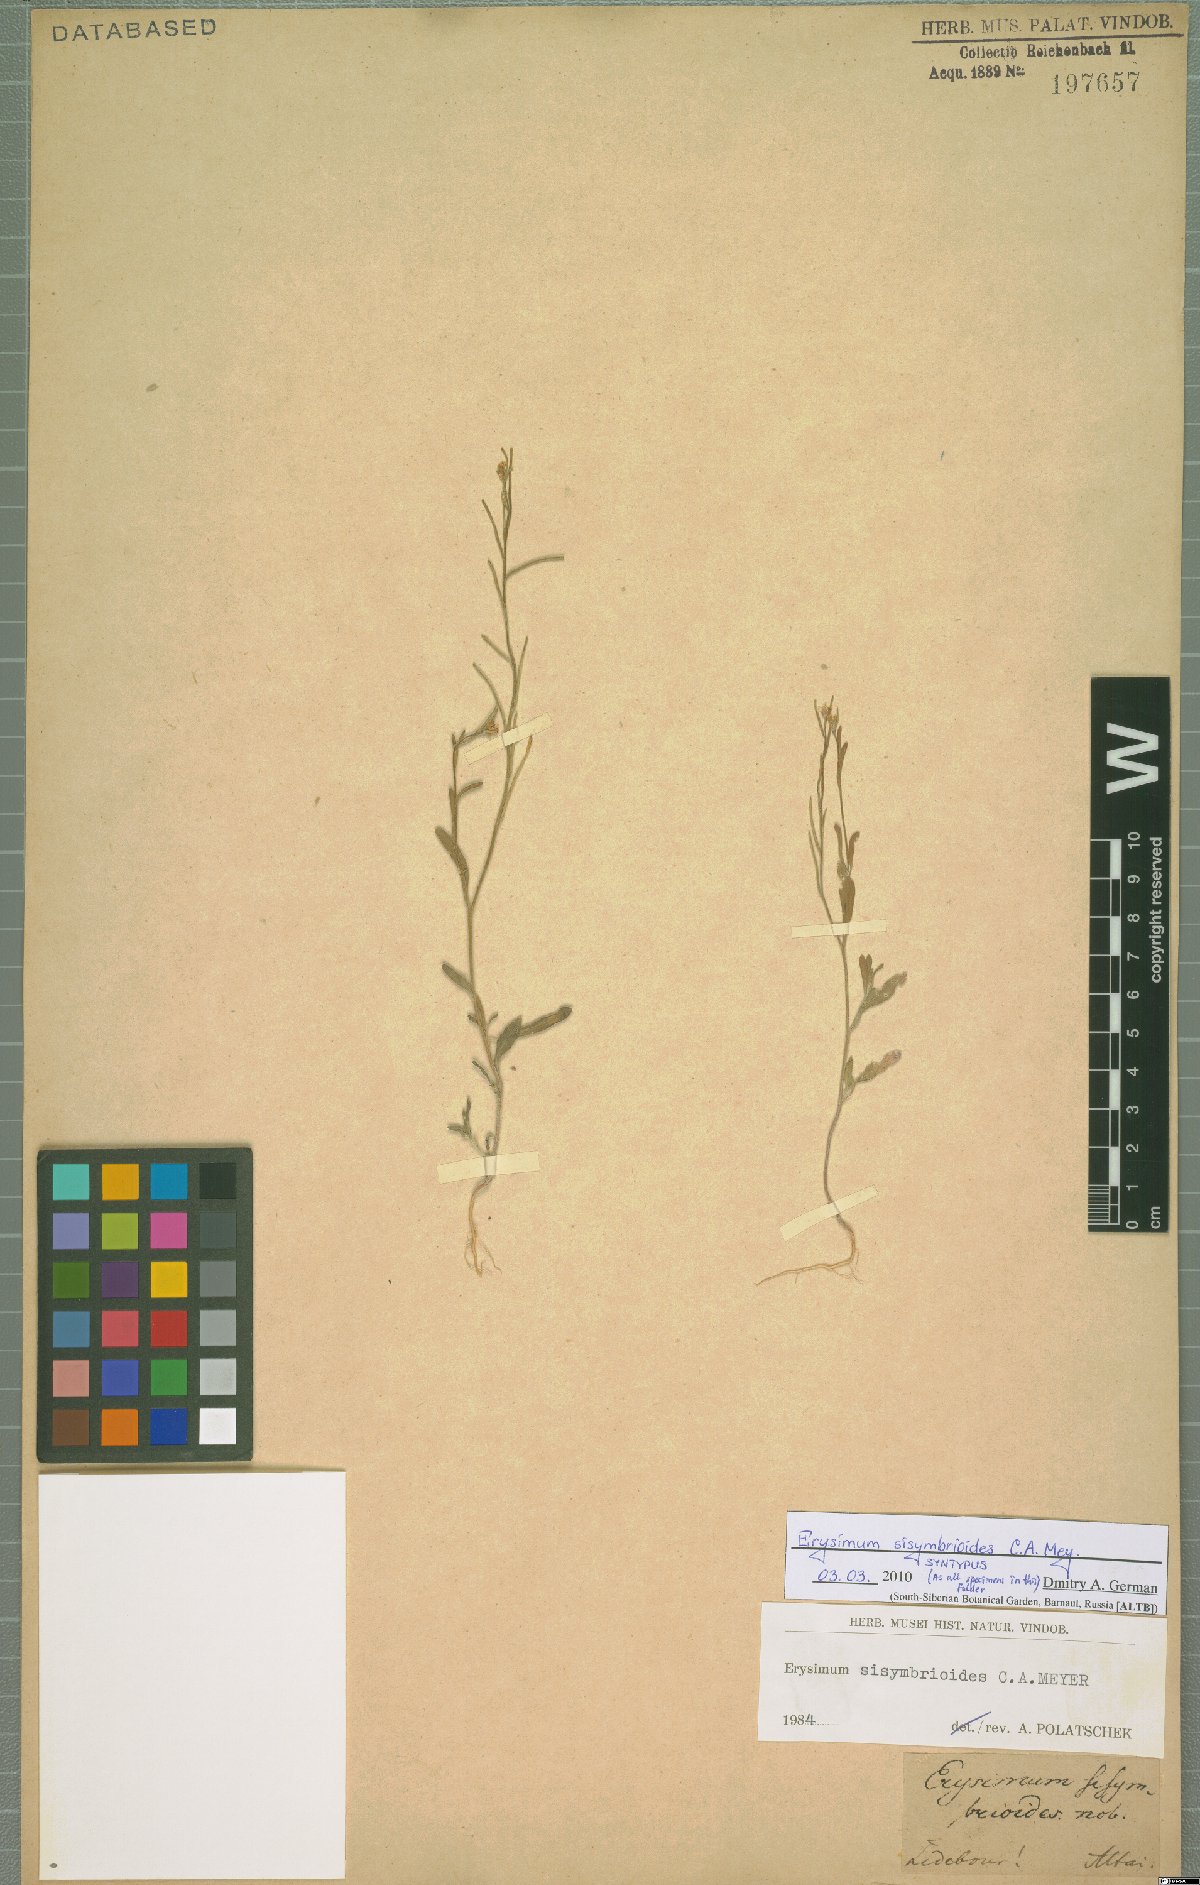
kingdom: Plantae
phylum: Tracheophyta
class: Magnoliopsida
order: Brassicales
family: Brassicaceae
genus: Erysimum
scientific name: Erysimum sisymbrioides
